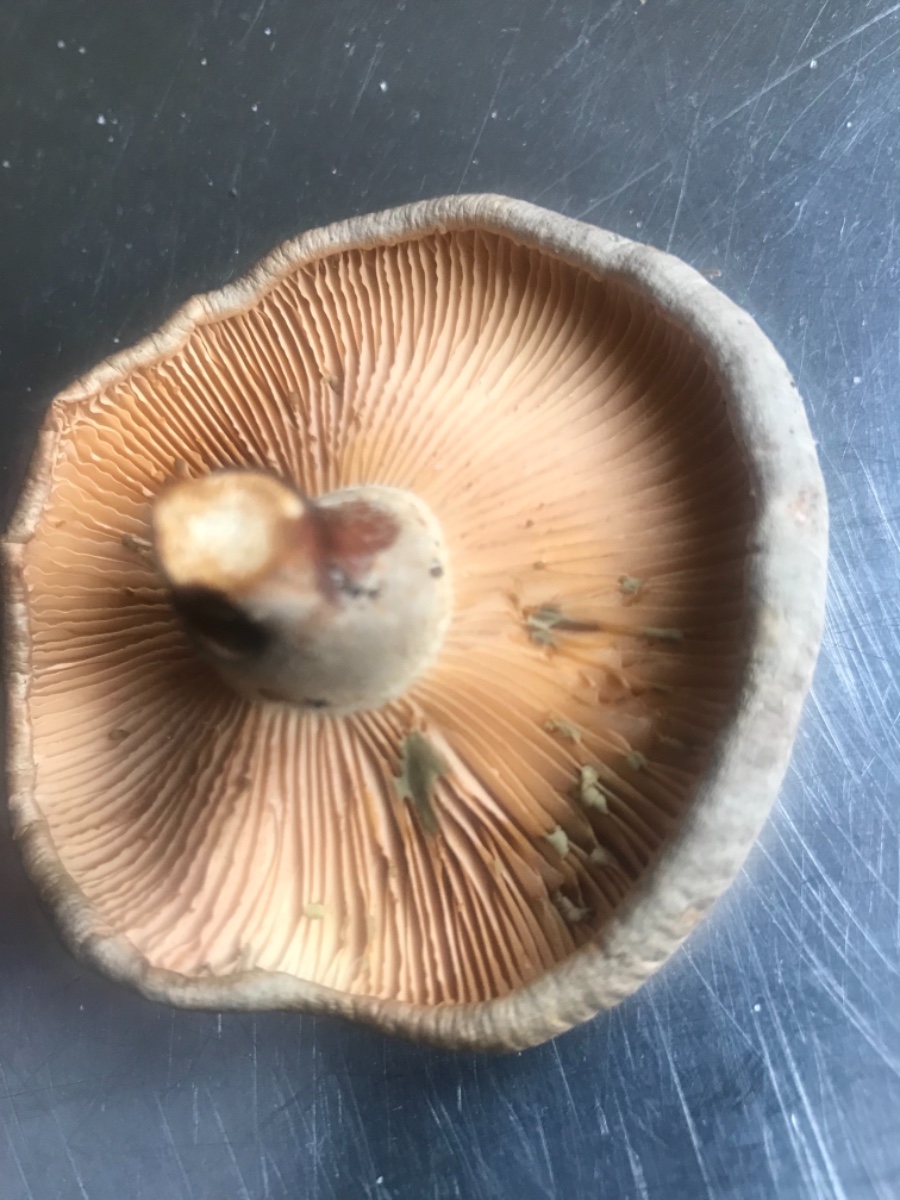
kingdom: Fungi
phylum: Basidiomycota
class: Agaricomycetes
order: Russulales
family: Russulaceae
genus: Lactarius
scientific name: Lactarius pyrogalus
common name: hassel-mælkehat
